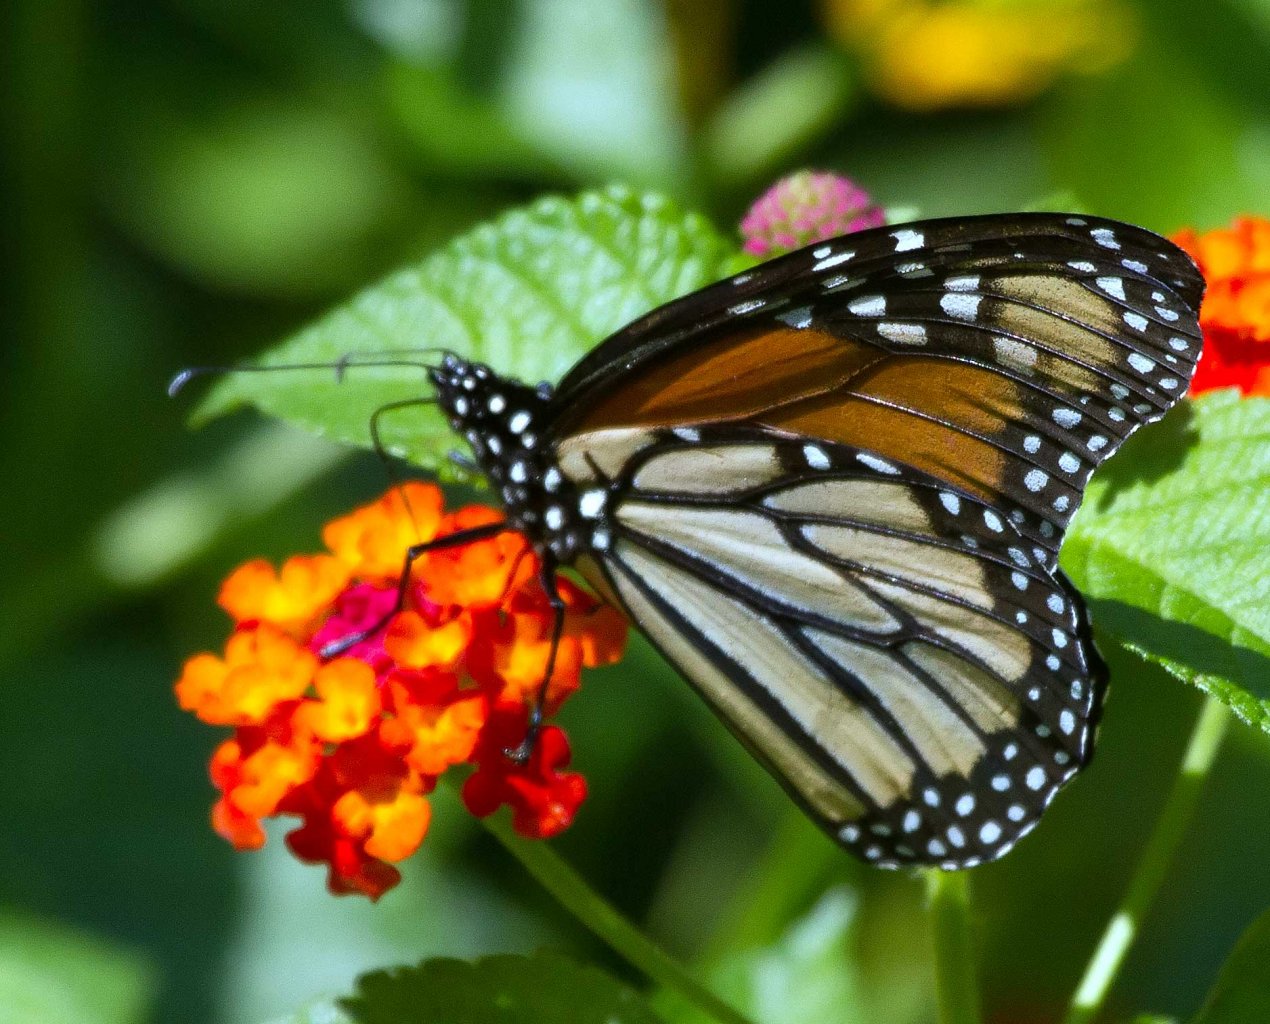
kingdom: Animalia
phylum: Arthropoda
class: Insecta
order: Lepidoptera
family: Nymphalidae
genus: Danaus
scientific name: Danaus plexippus
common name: Monarch
